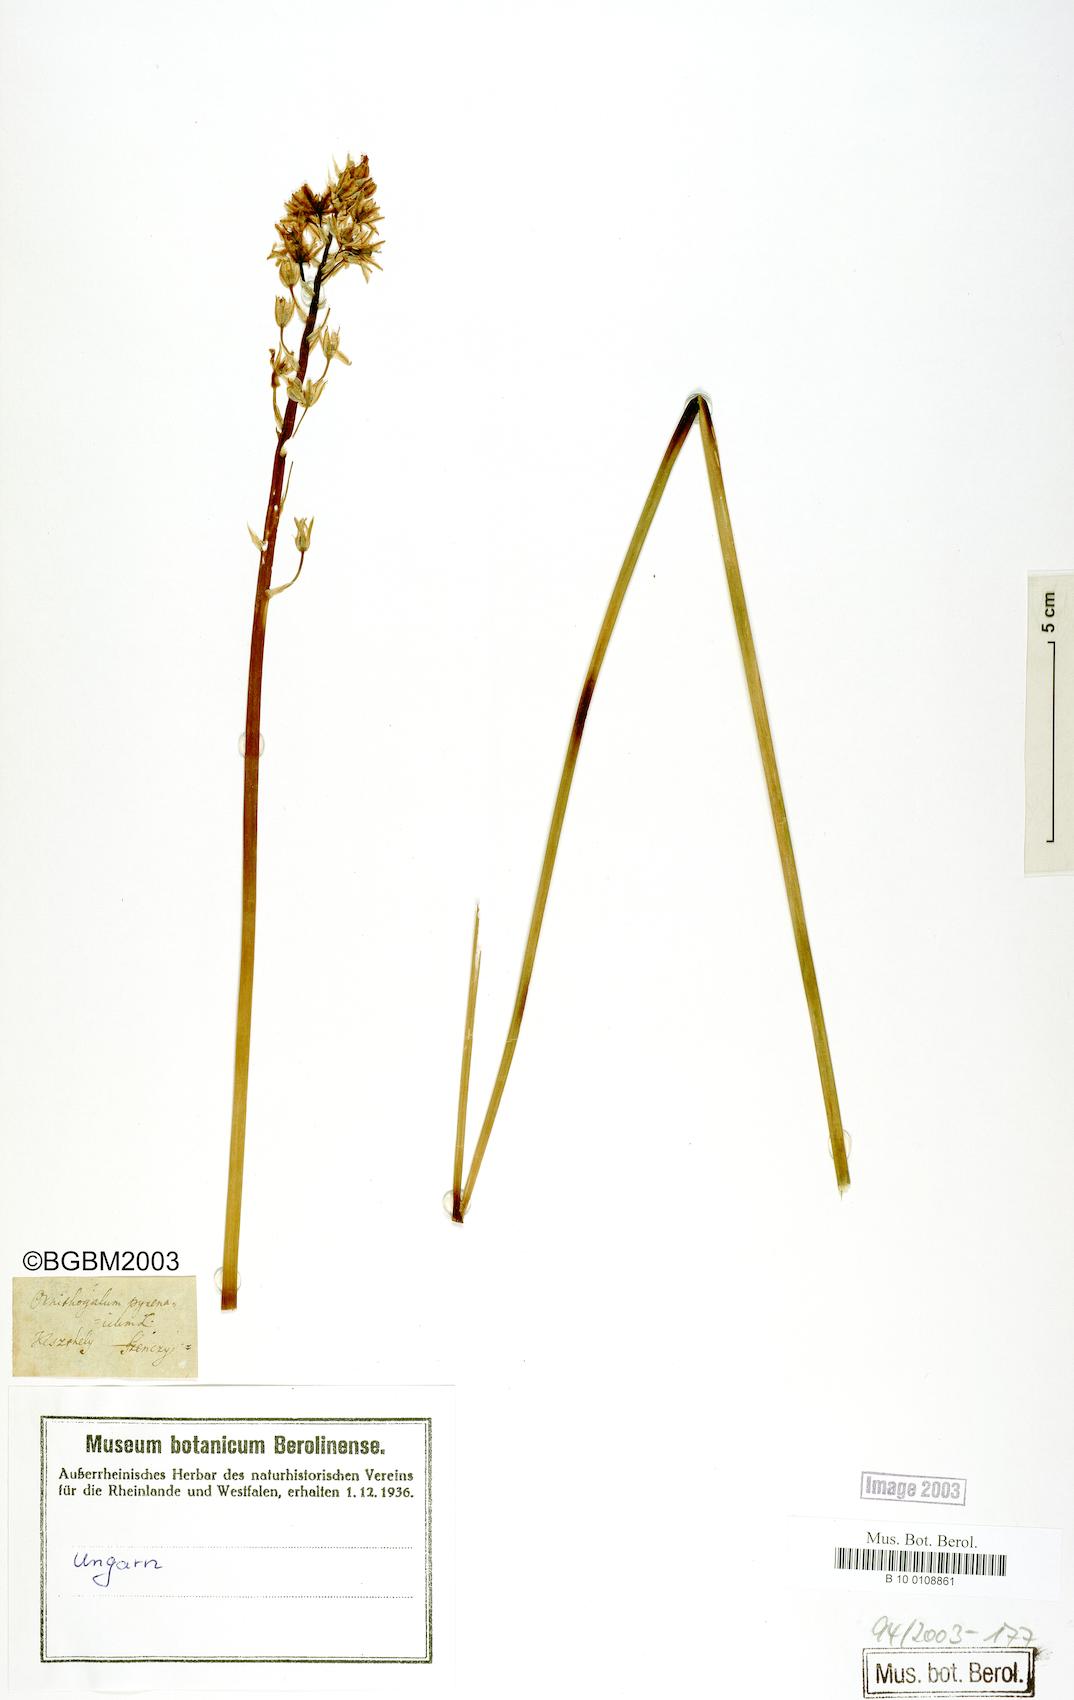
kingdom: Plantae
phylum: Tracheophyta
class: Liliopsida
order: Asparagales
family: Asparagaceae
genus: Ornithogalum
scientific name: Ornithogalum pyrenaicum
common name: Spiked star-of-bethlehem
